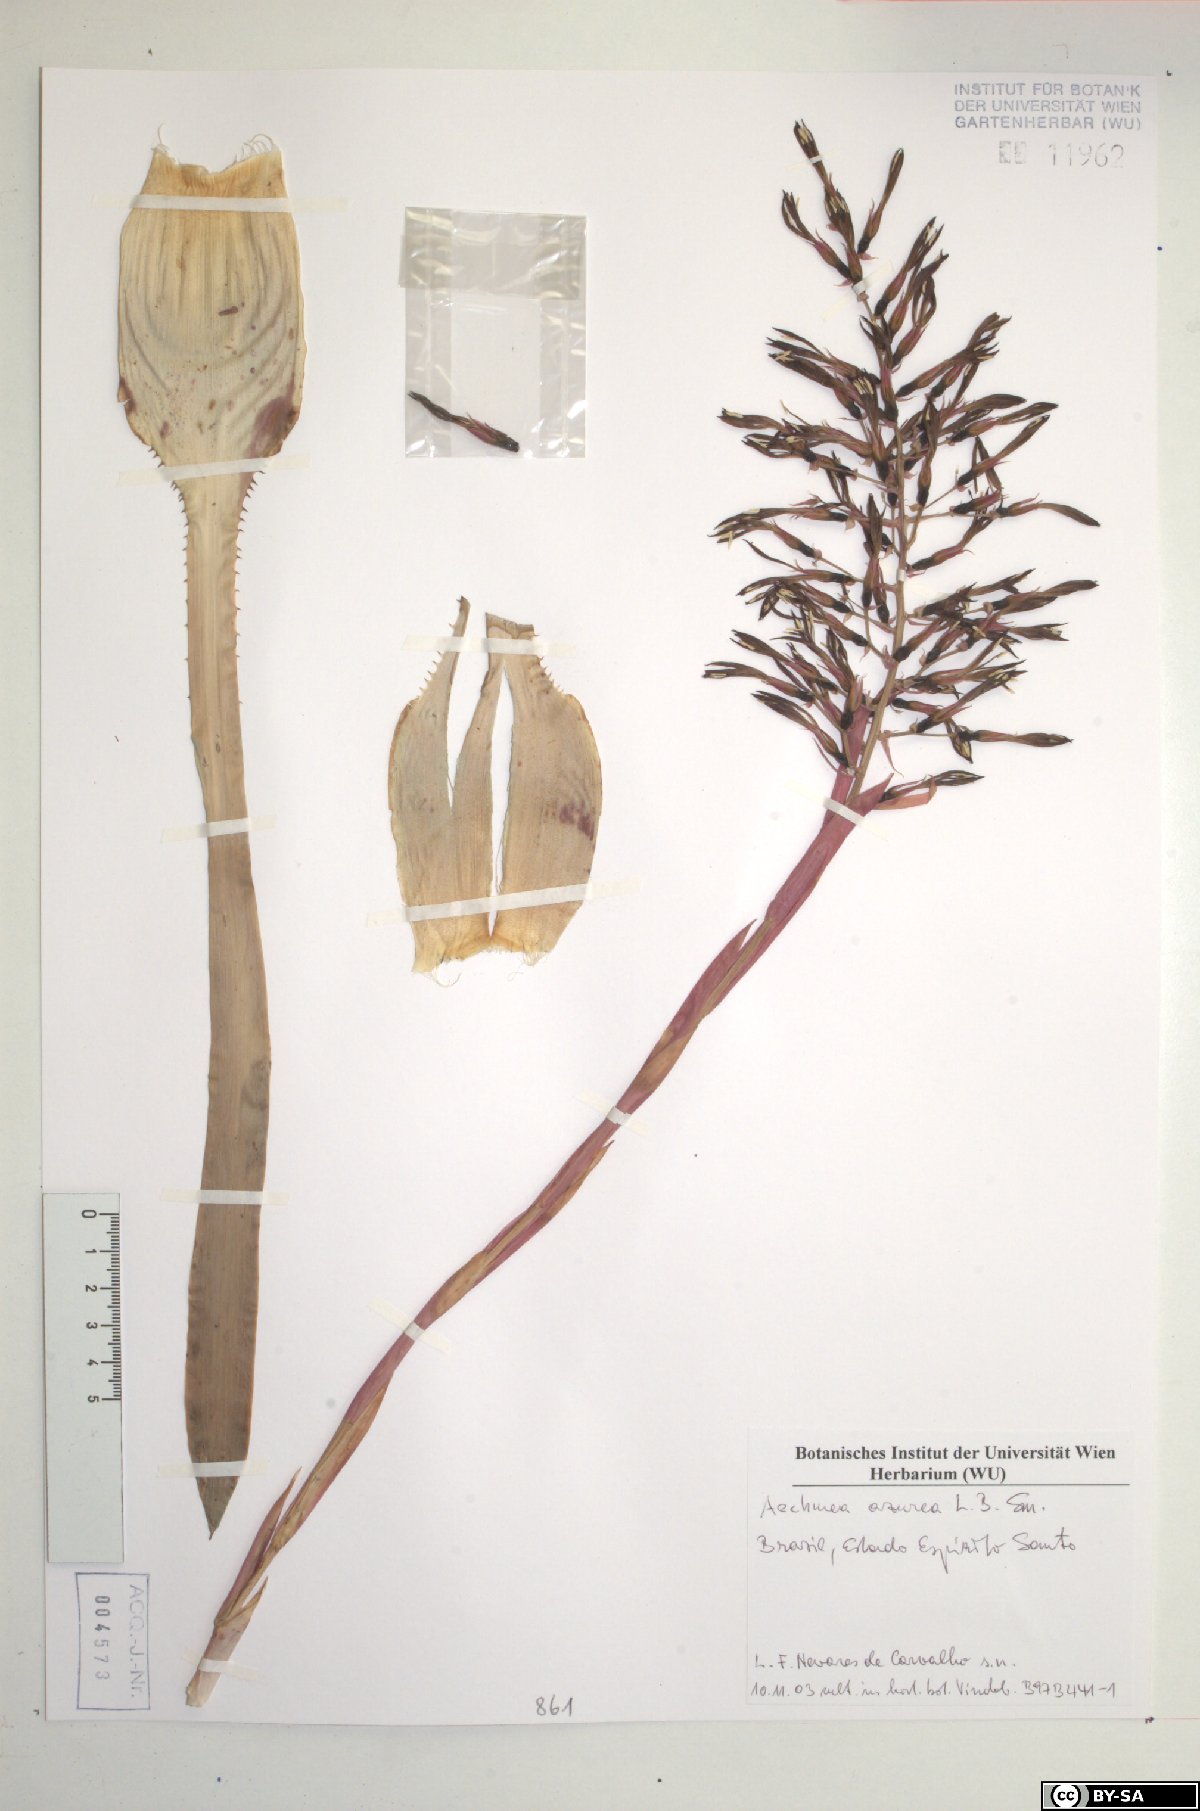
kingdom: Plantae
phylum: Tracheophyta
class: Liliopsida
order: Poales
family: Bromeliaceae
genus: Aechmea
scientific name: Aechmea azurea
